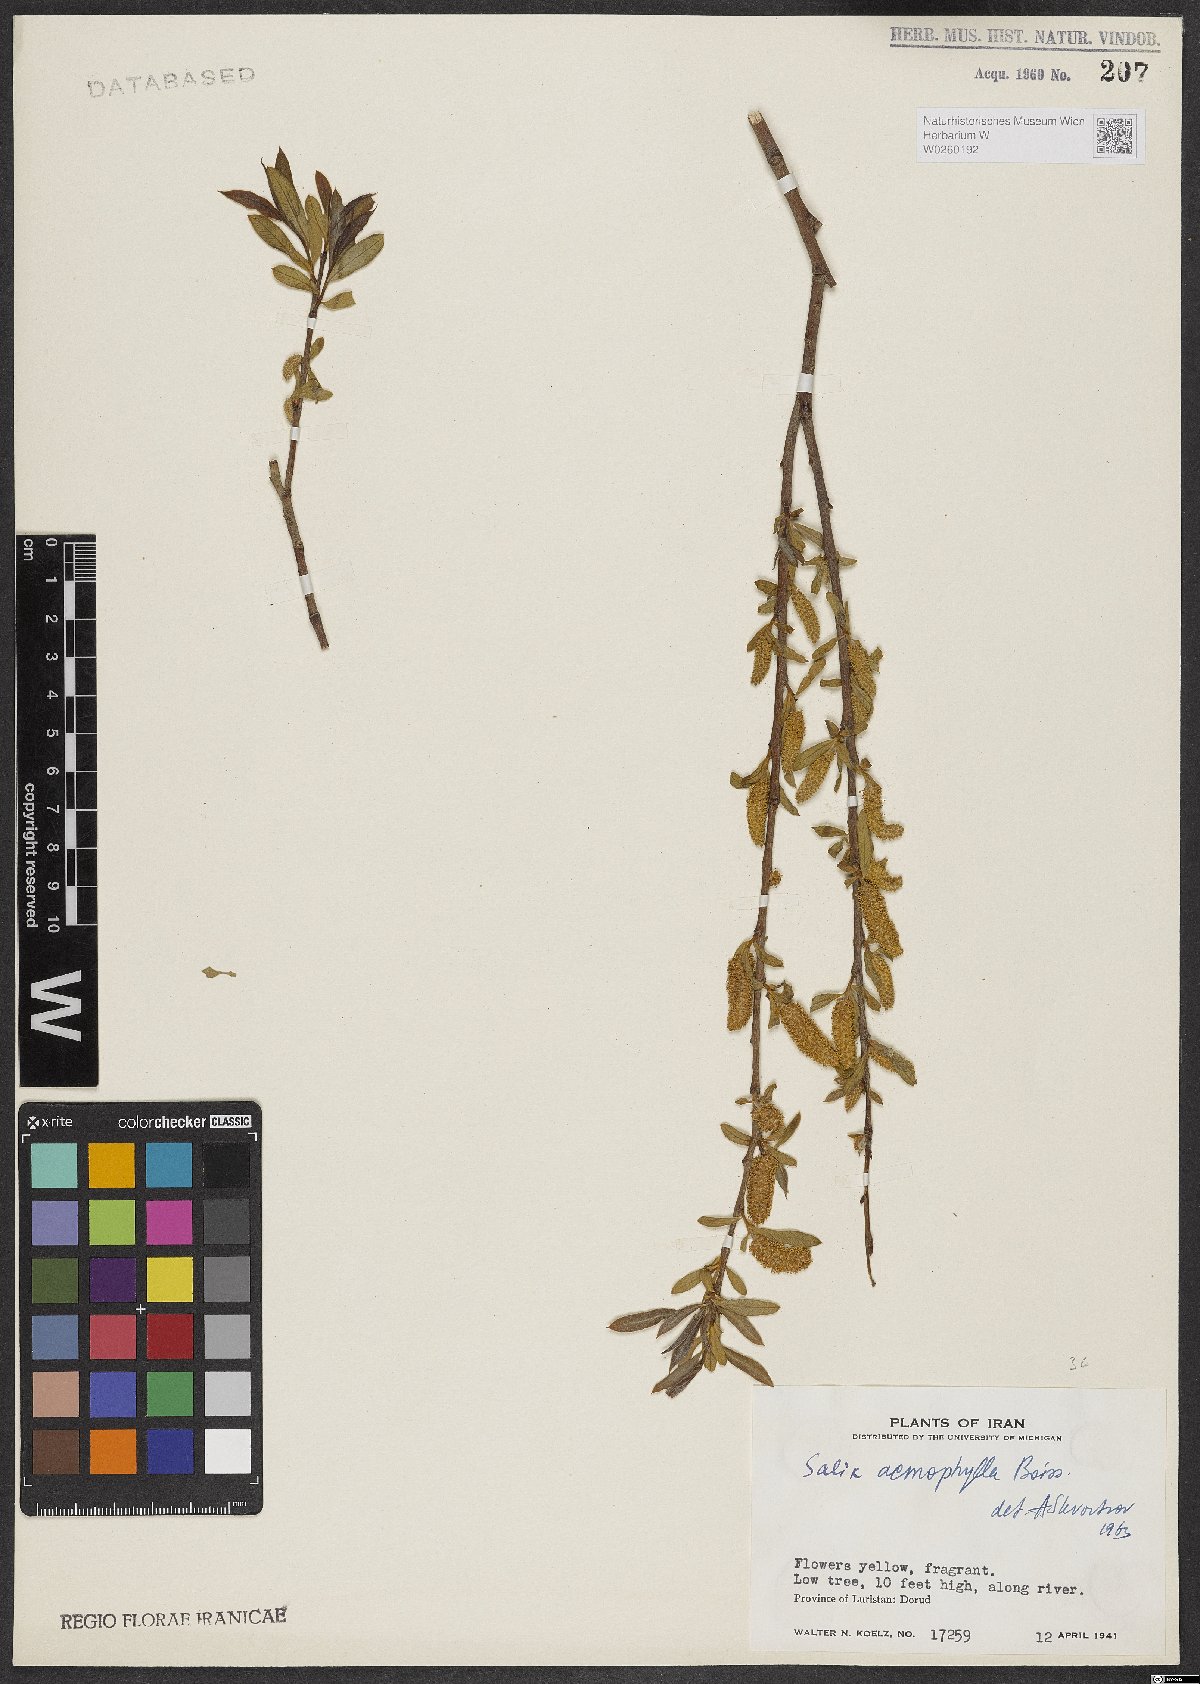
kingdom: Plantae
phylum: Tracheophyta
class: Magnoliopsida
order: Malpighiales
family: Salicaceae
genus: Salix
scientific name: Salix acmophylla
